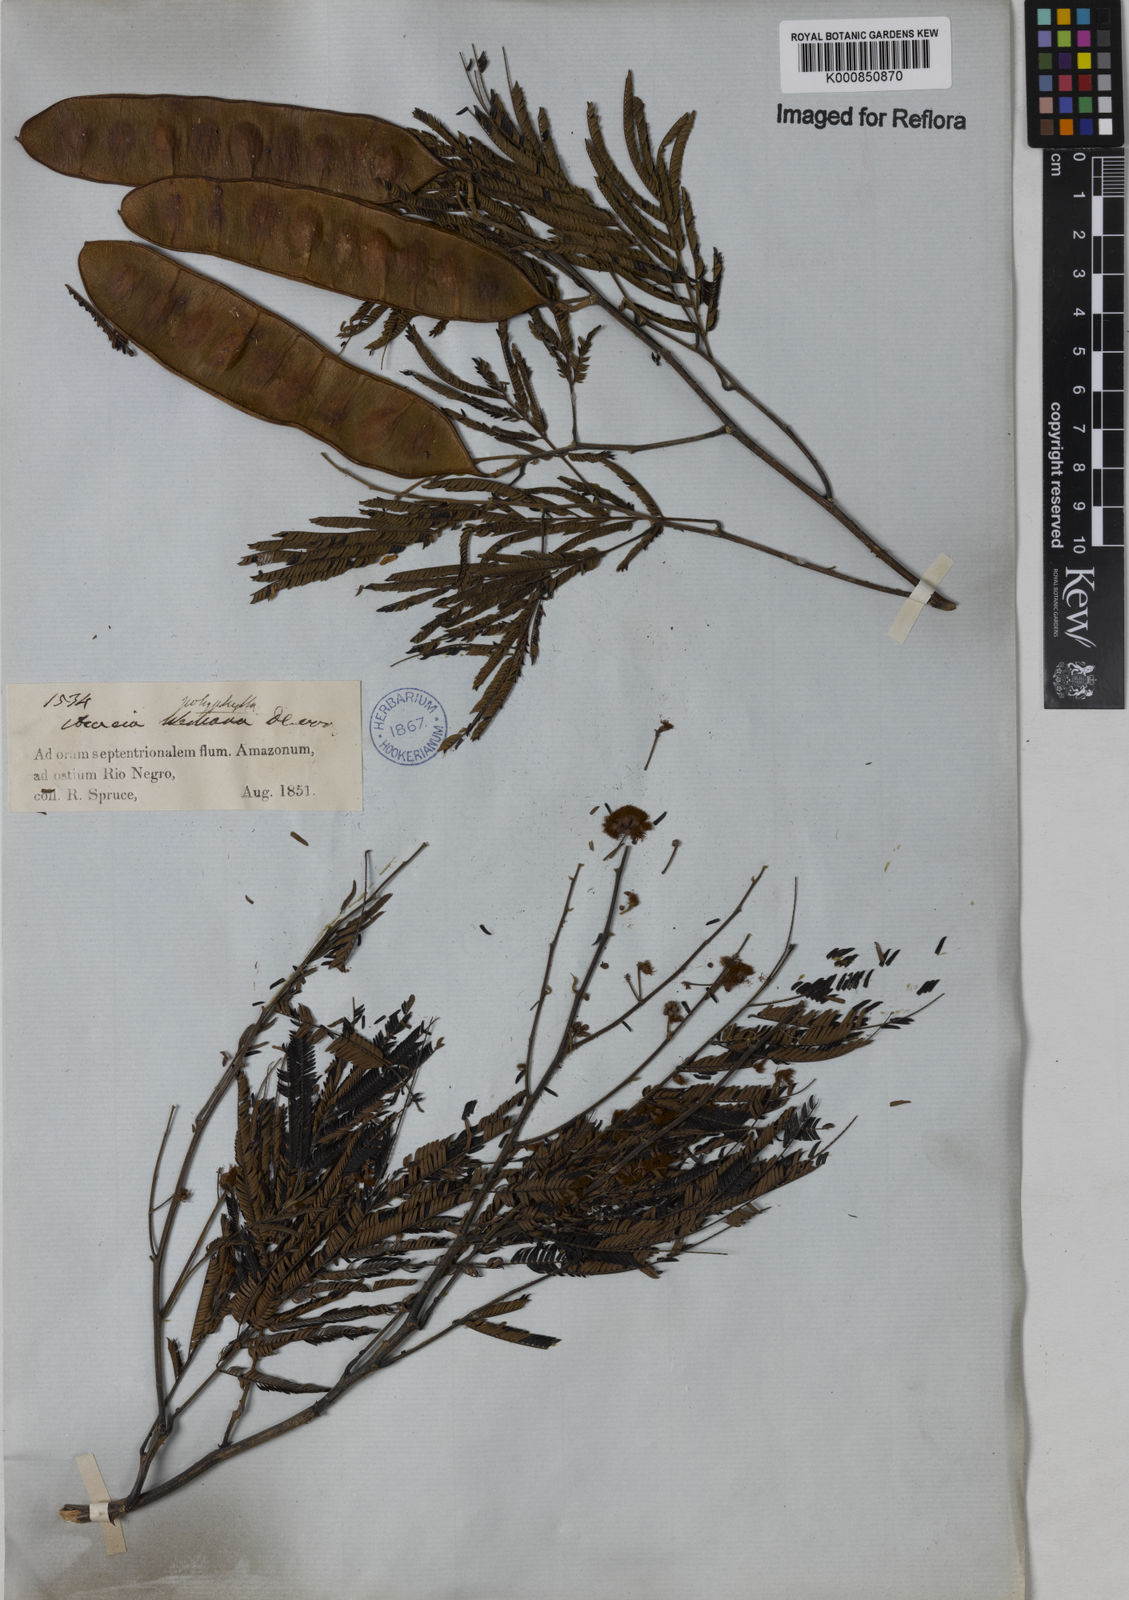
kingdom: Plantae
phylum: Tracheophyta
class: Magnoliopsida
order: Fabales
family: Fabaceae
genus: Senegalia
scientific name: Senegalia polyphylla
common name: White-tamarind
